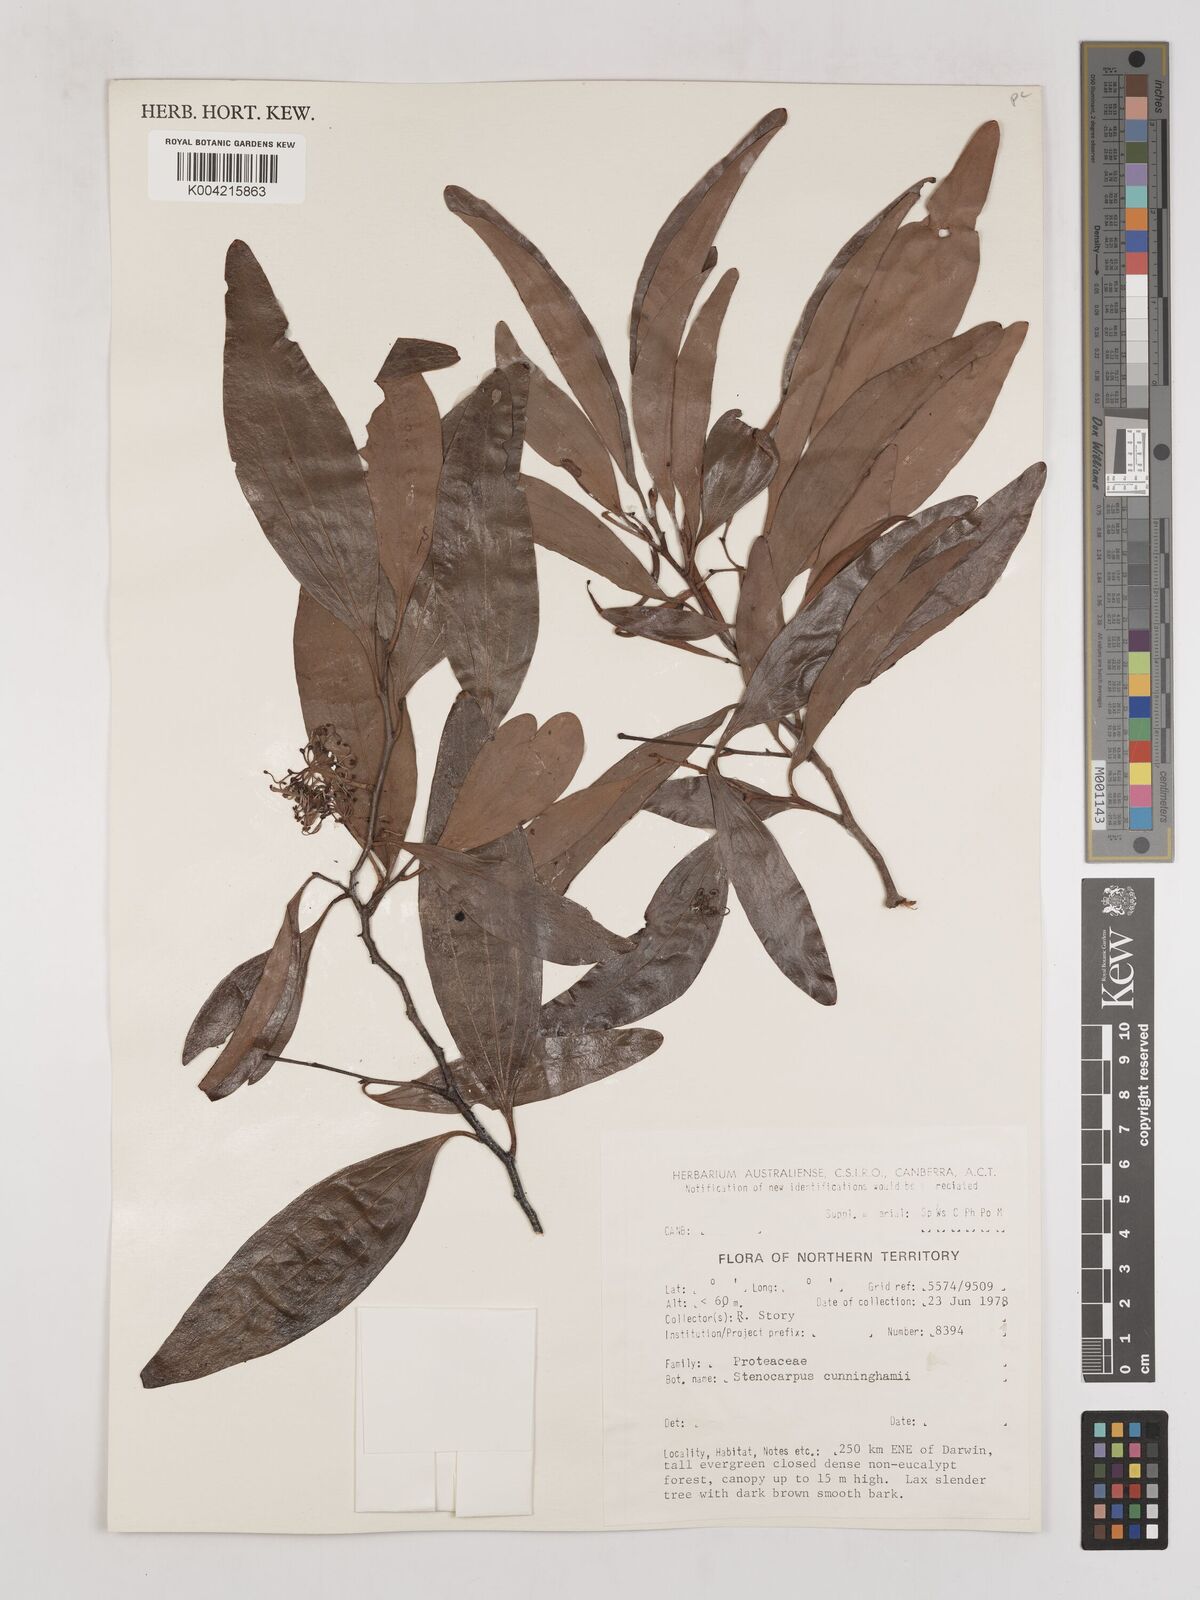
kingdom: Plantae
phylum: Tracheophyta
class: Magnoliopsida
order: Proteales
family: Proteaceae
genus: Stenocarpus
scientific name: Stenocarpus cunninghamii
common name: Little wheelbush
